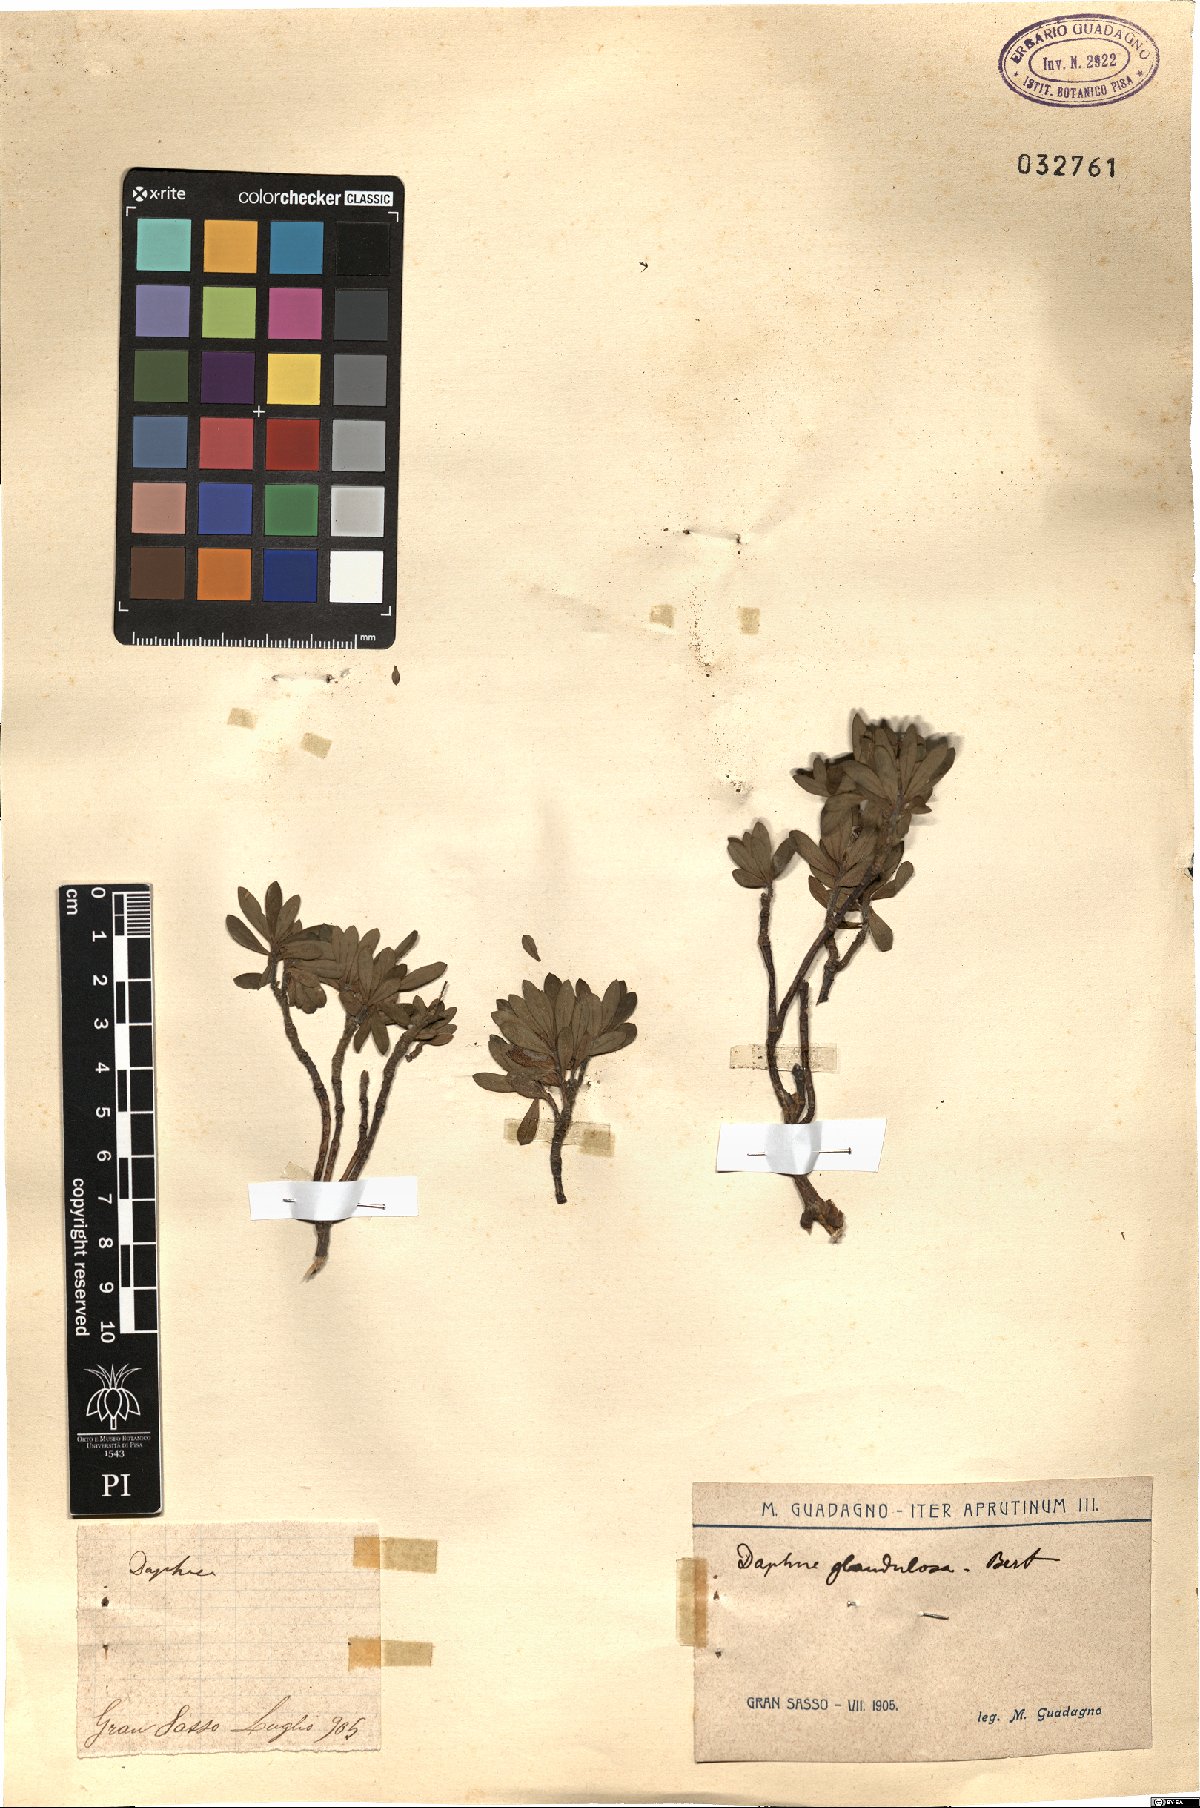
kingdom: Plantae
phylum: Tracheophyta
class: Magnoliopsida
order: Malvales
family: Thymelaeaceae
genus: Daphne
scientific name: Daphne oleoides
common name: Spurge-olive
